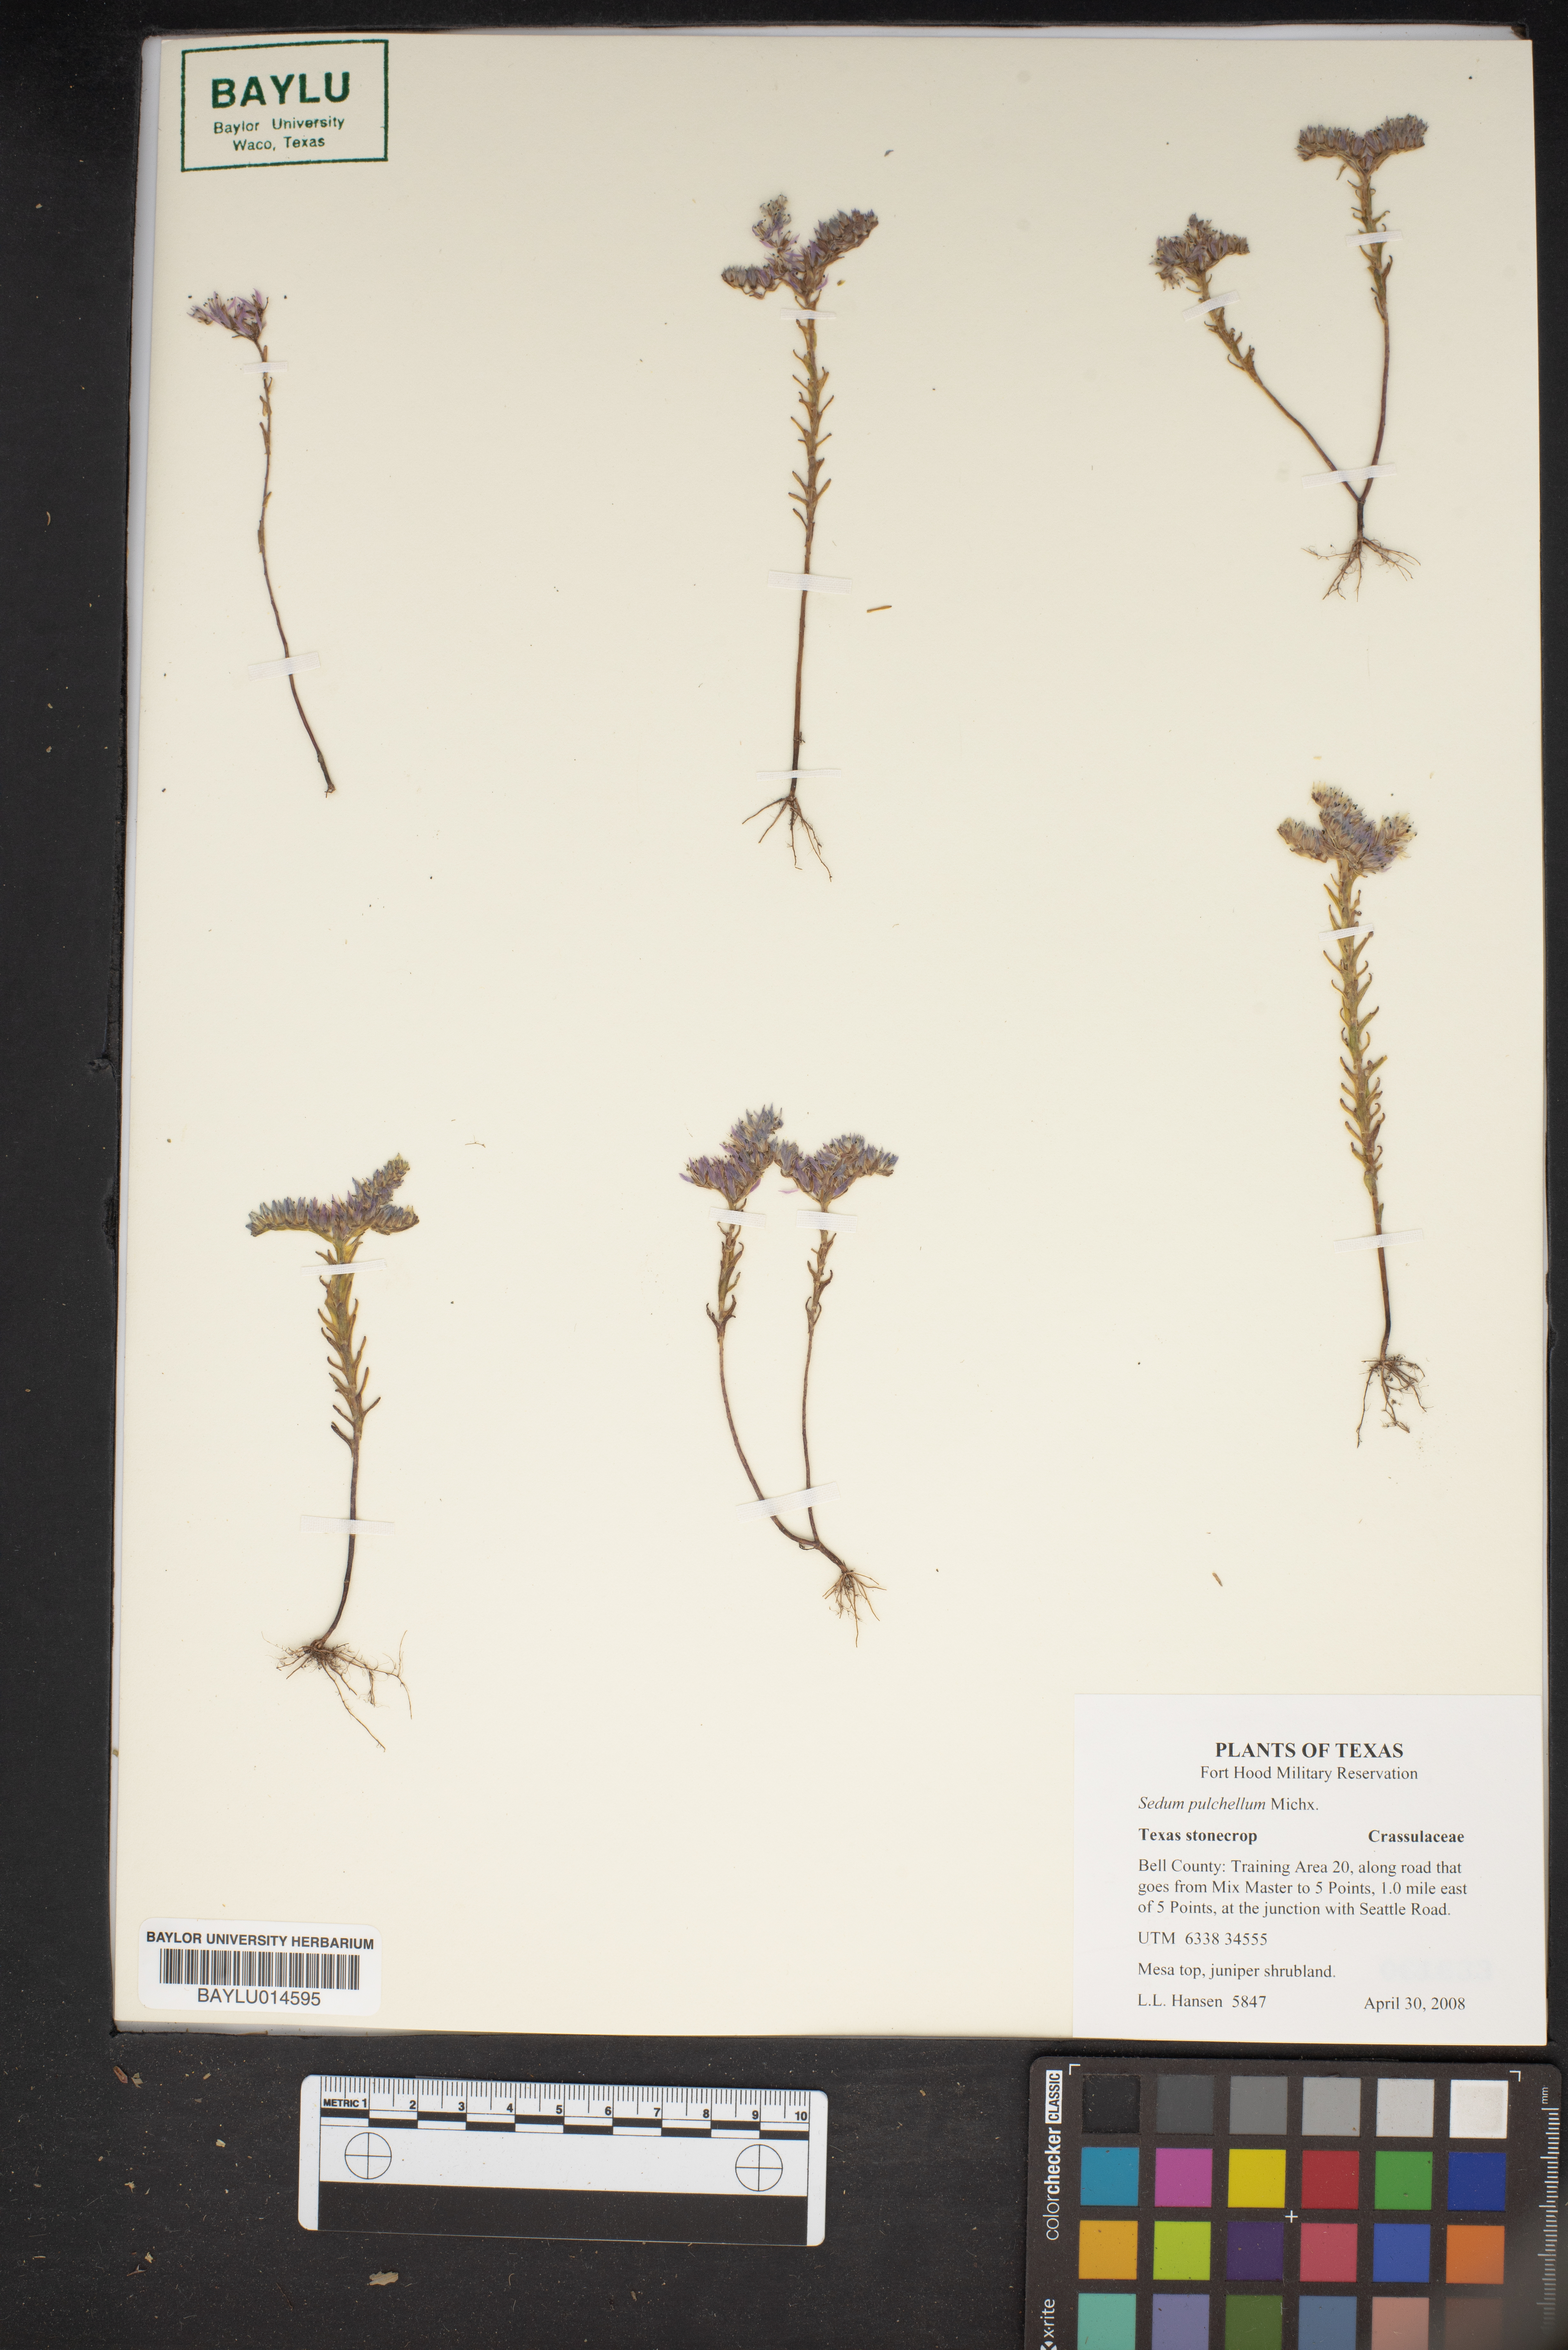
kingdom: Plantae
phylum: Tracheophyta
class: Magnoliopsida
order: Saxifragales
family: Crassulaceae
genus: Sedum
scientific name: Sedum pulchellum
